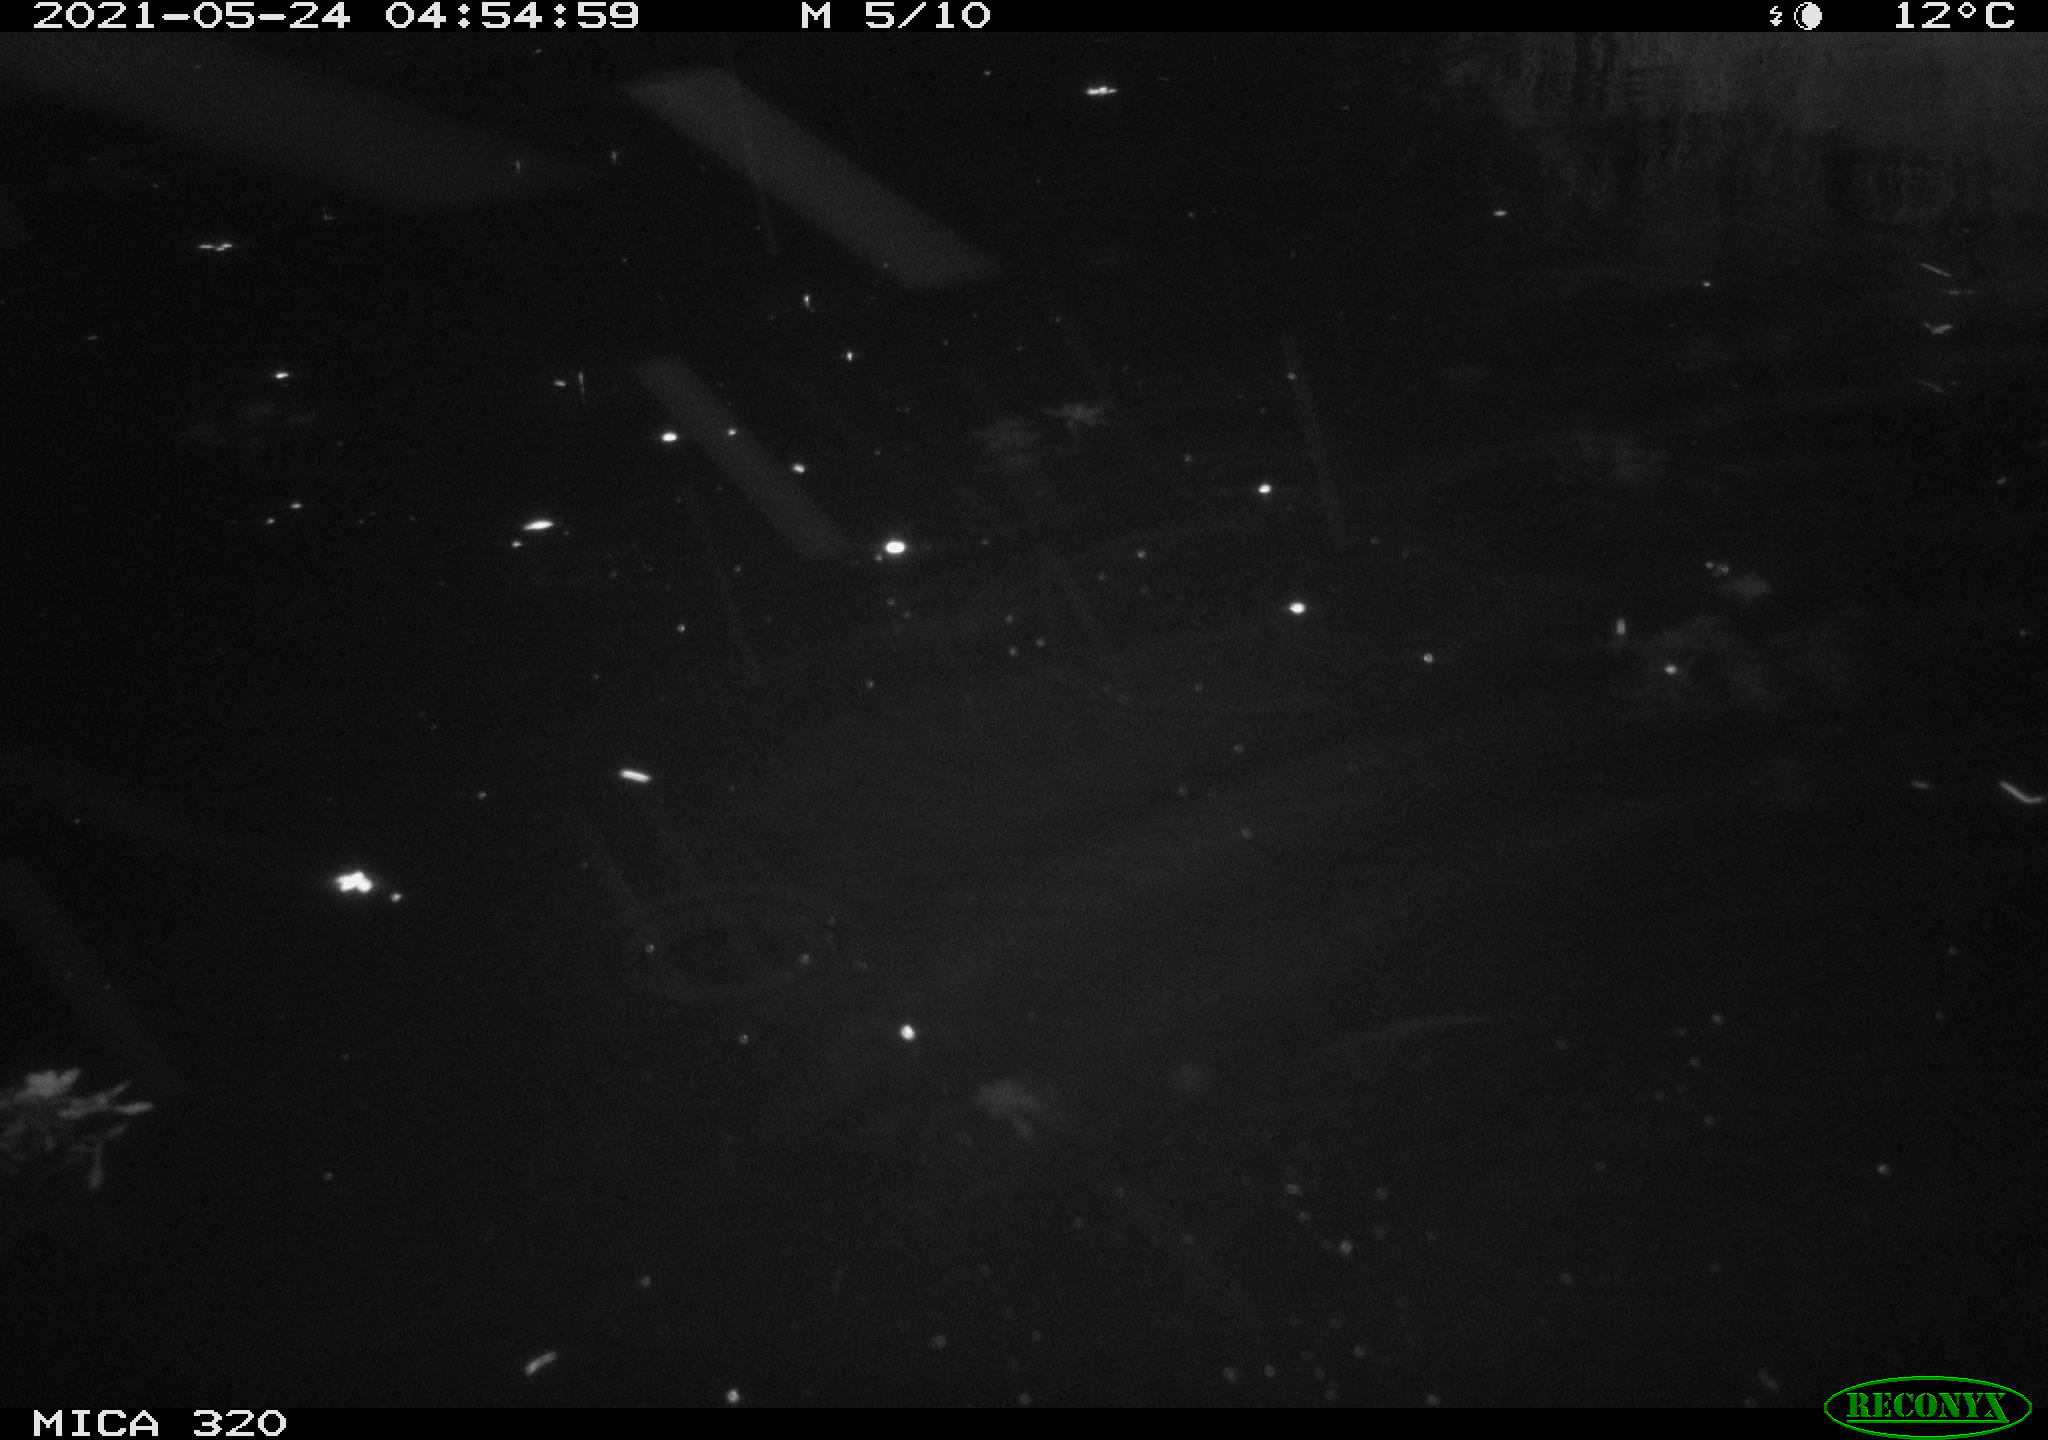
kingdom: Animalia
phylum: Chordata
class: Aves
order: Anseriformes
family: Anatidae
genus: Anas
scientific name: Anas platyrhynchos
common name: Mallard
